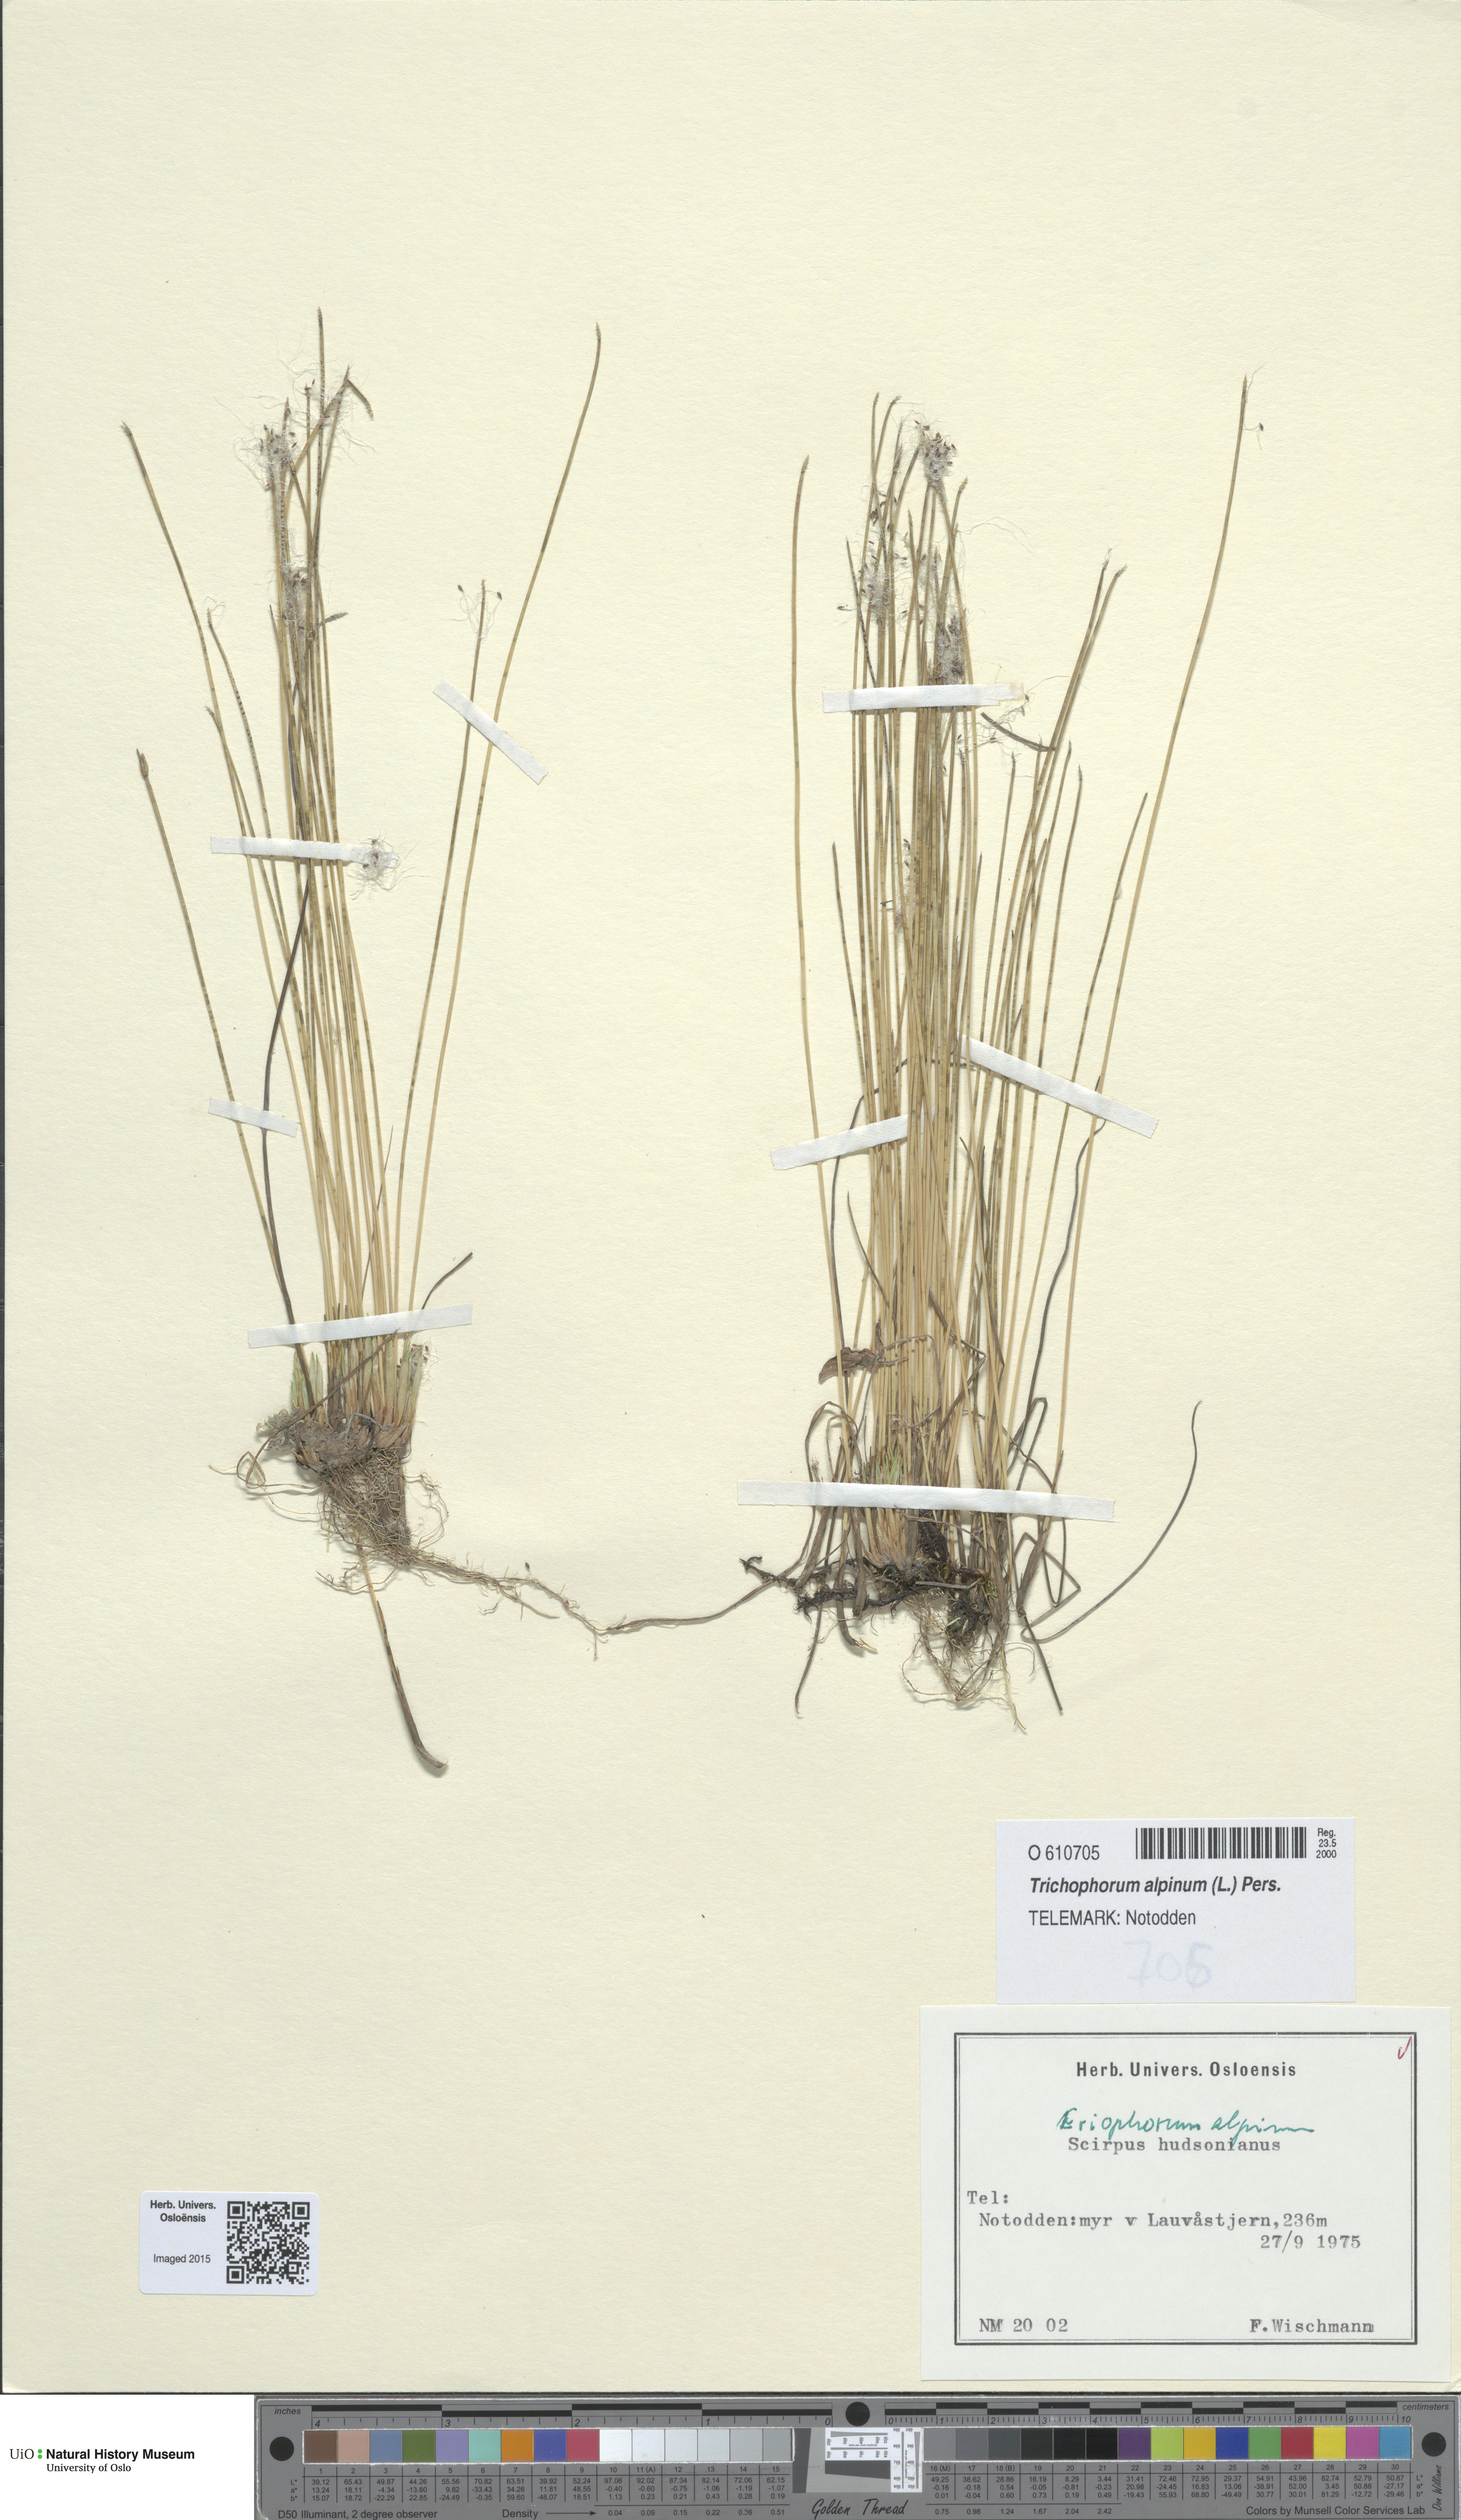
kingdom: Plantae
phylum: Tracheophyta
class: Liliopsida
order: Poales
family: Cyperaceae
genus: Trichophorum
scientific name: Trichophorum alpinum
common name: Alpine bulrush
